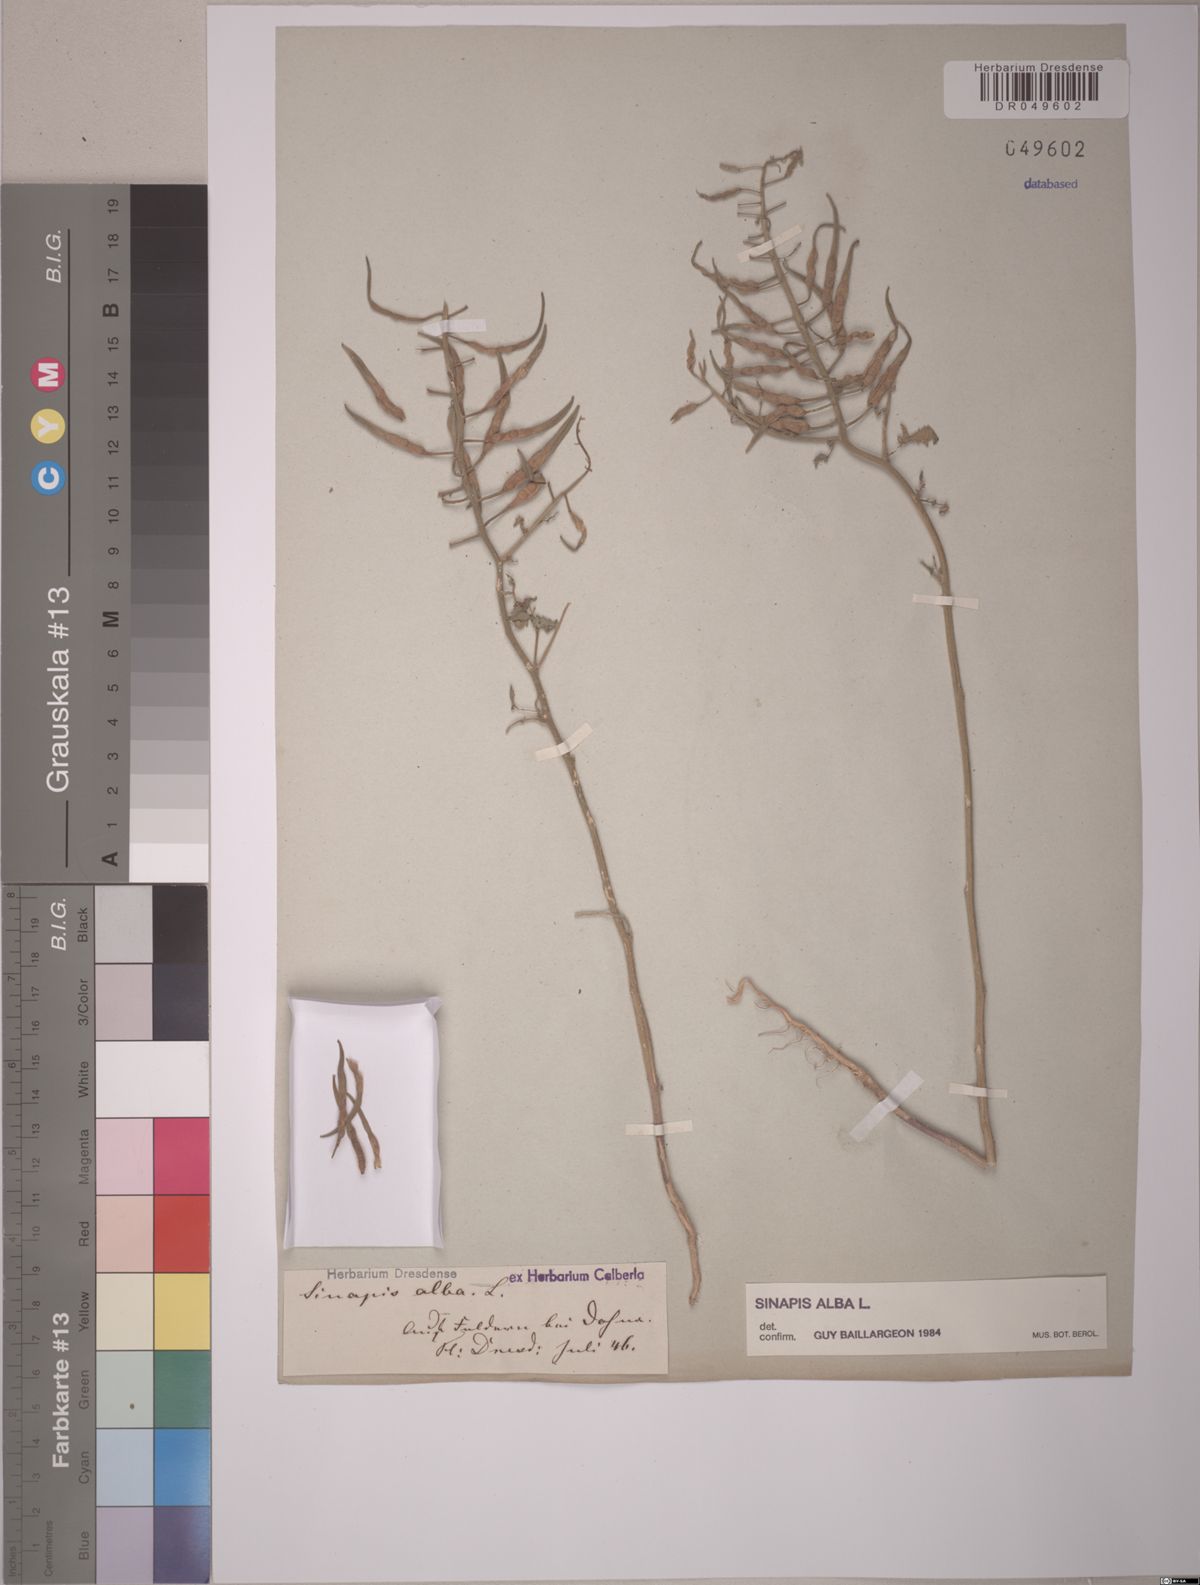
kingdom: Plantae
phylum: Tracheophyta
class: Magnoliopsida
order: Brassicales
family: Brassicaceae
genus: Sinapis
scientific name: Sinapis alba
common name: White mustard
